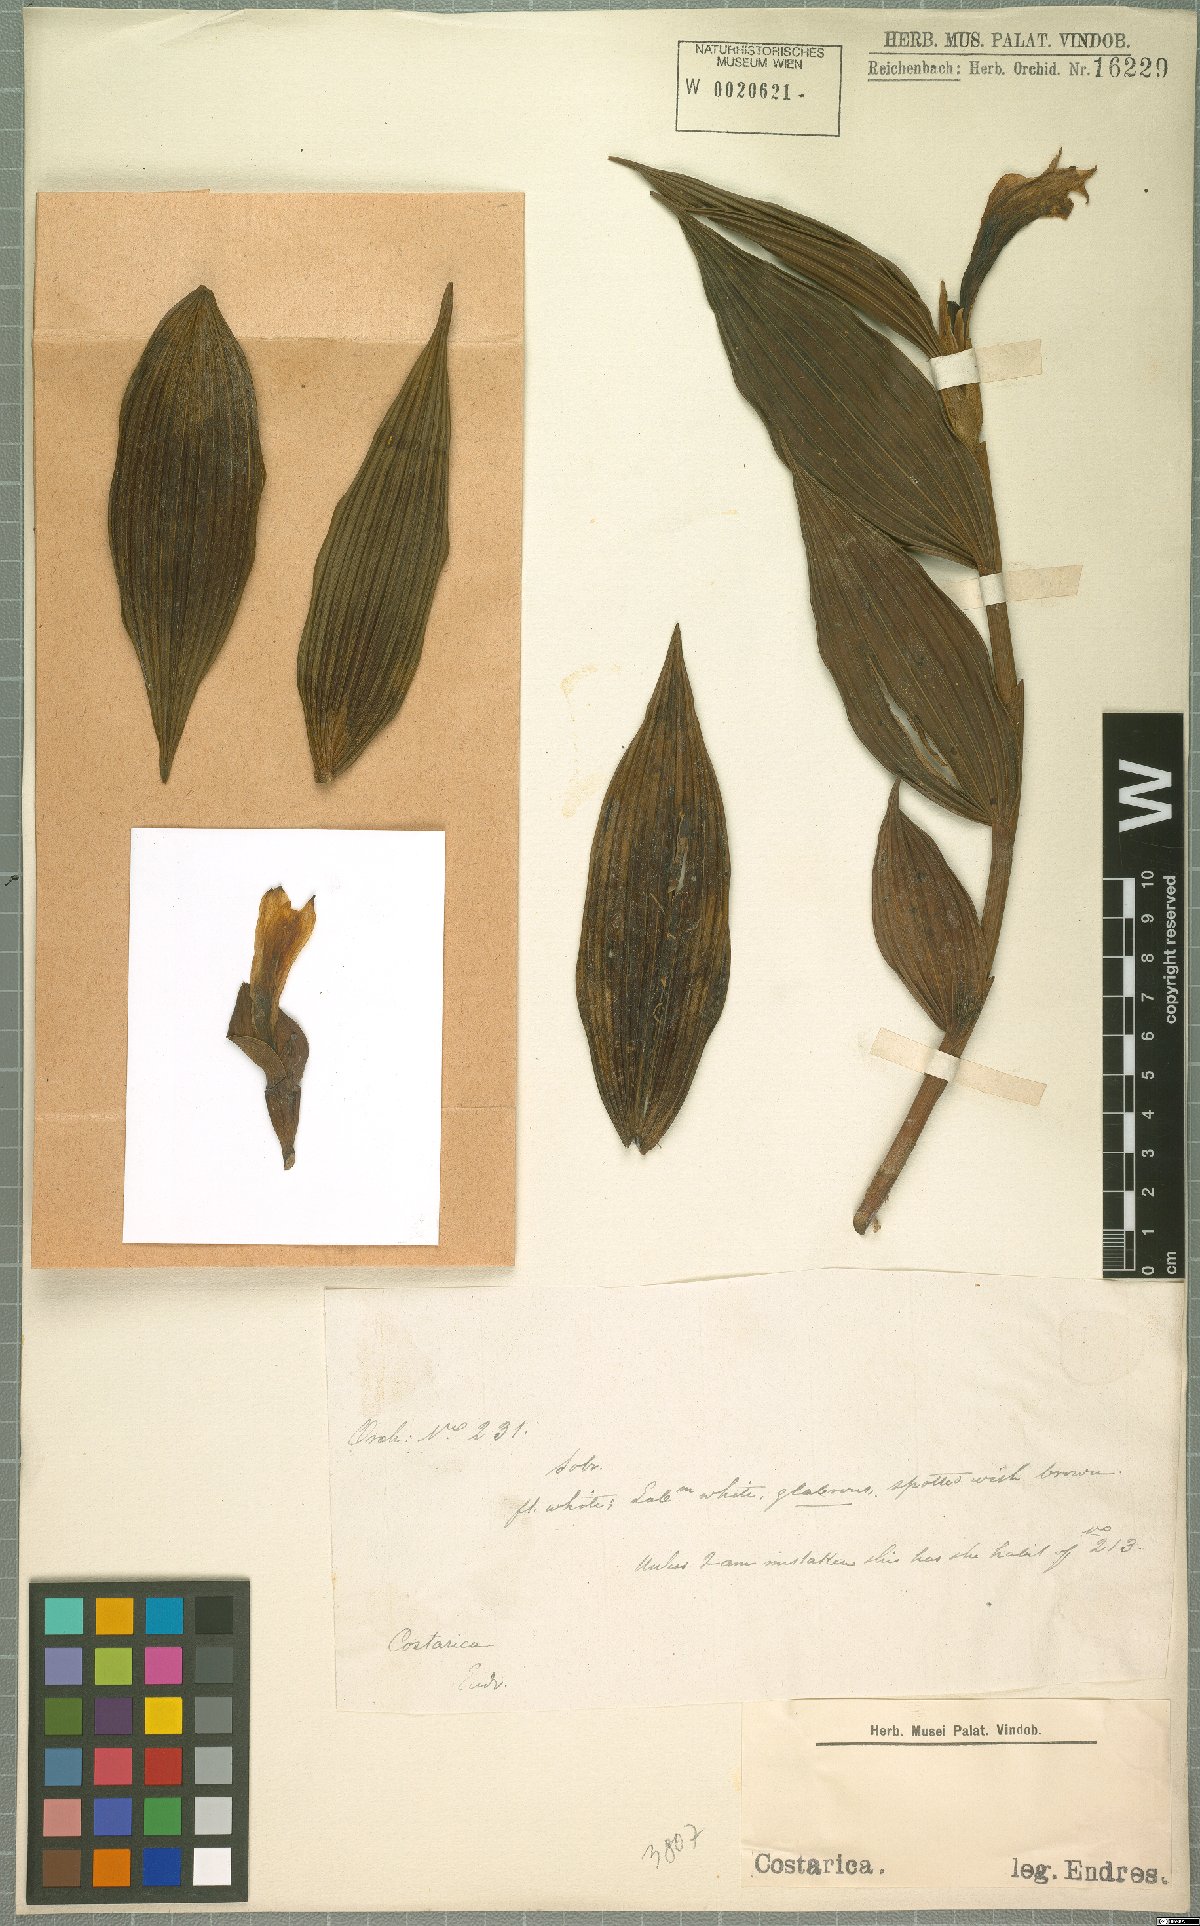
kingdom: Plantae
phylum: Tracheophyta
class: Liliopsida
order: Asparagales
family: Orchidaceae
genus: Sobralia
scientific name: Sobralia
